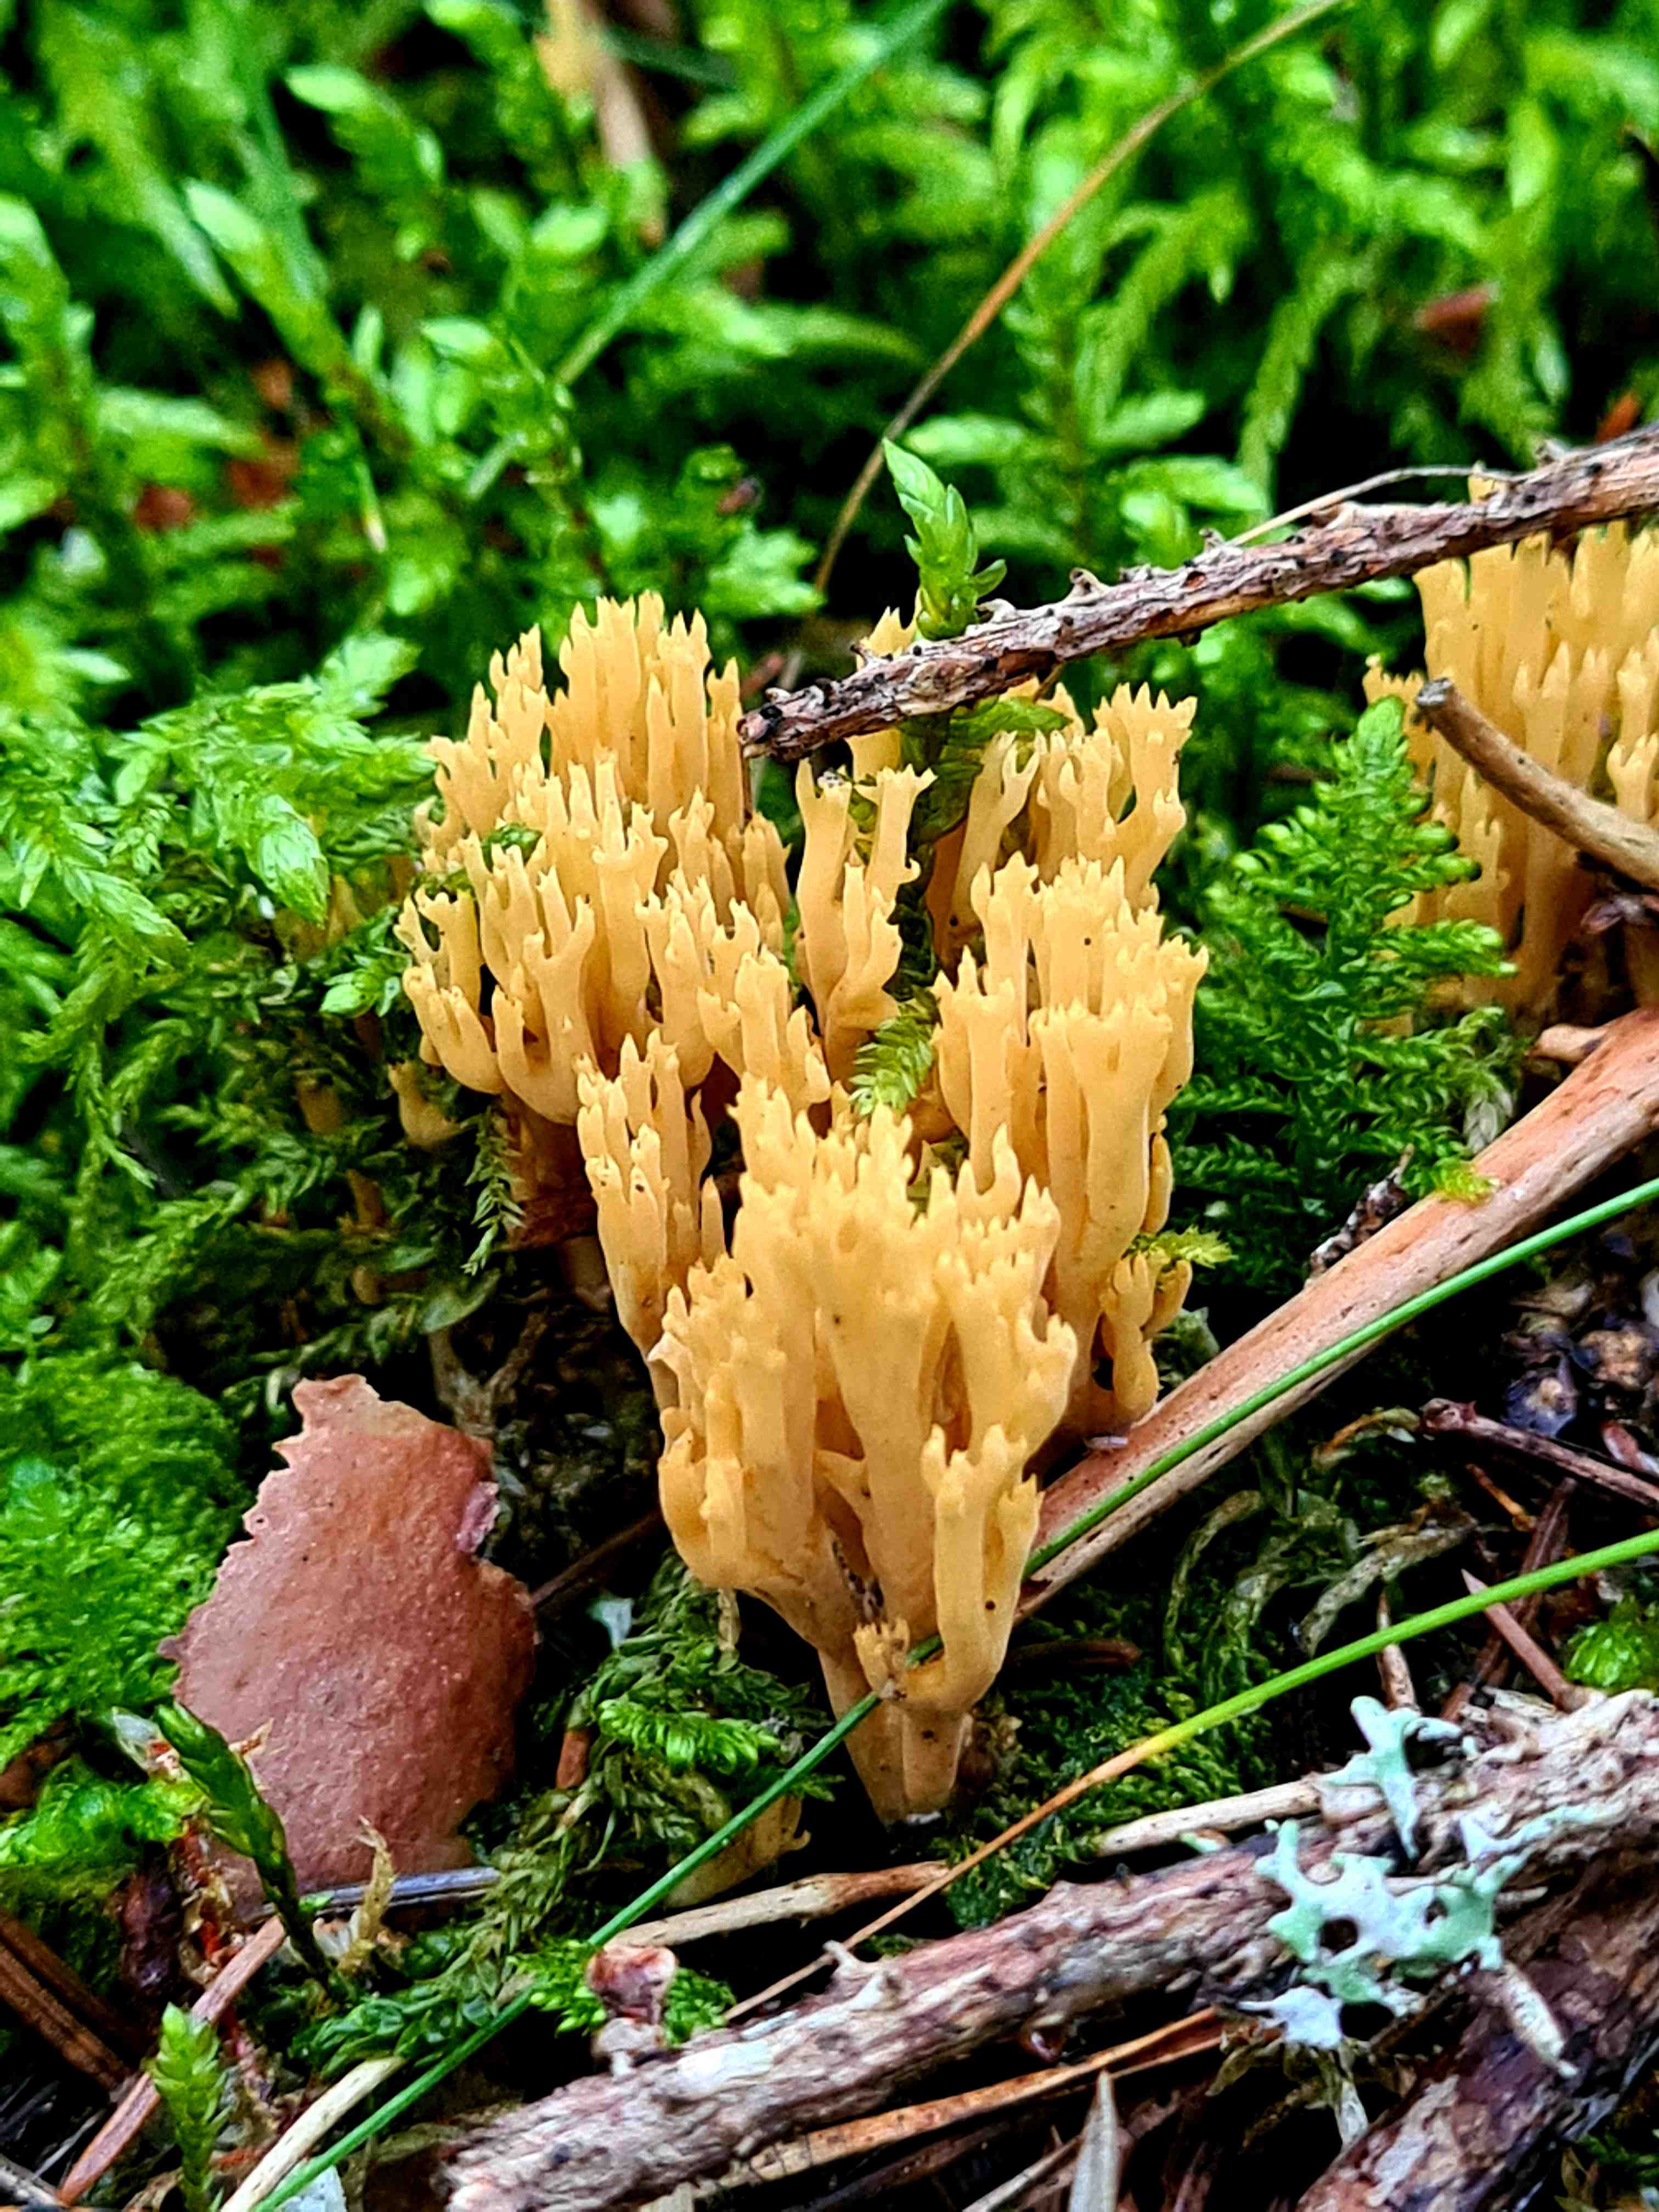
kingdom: Fungi
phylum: Basidiomycota
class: Agaricomycetes
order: Gomphales
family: Gomphaceae
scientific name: Gomphaceae
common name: køllekantarelfamilien
